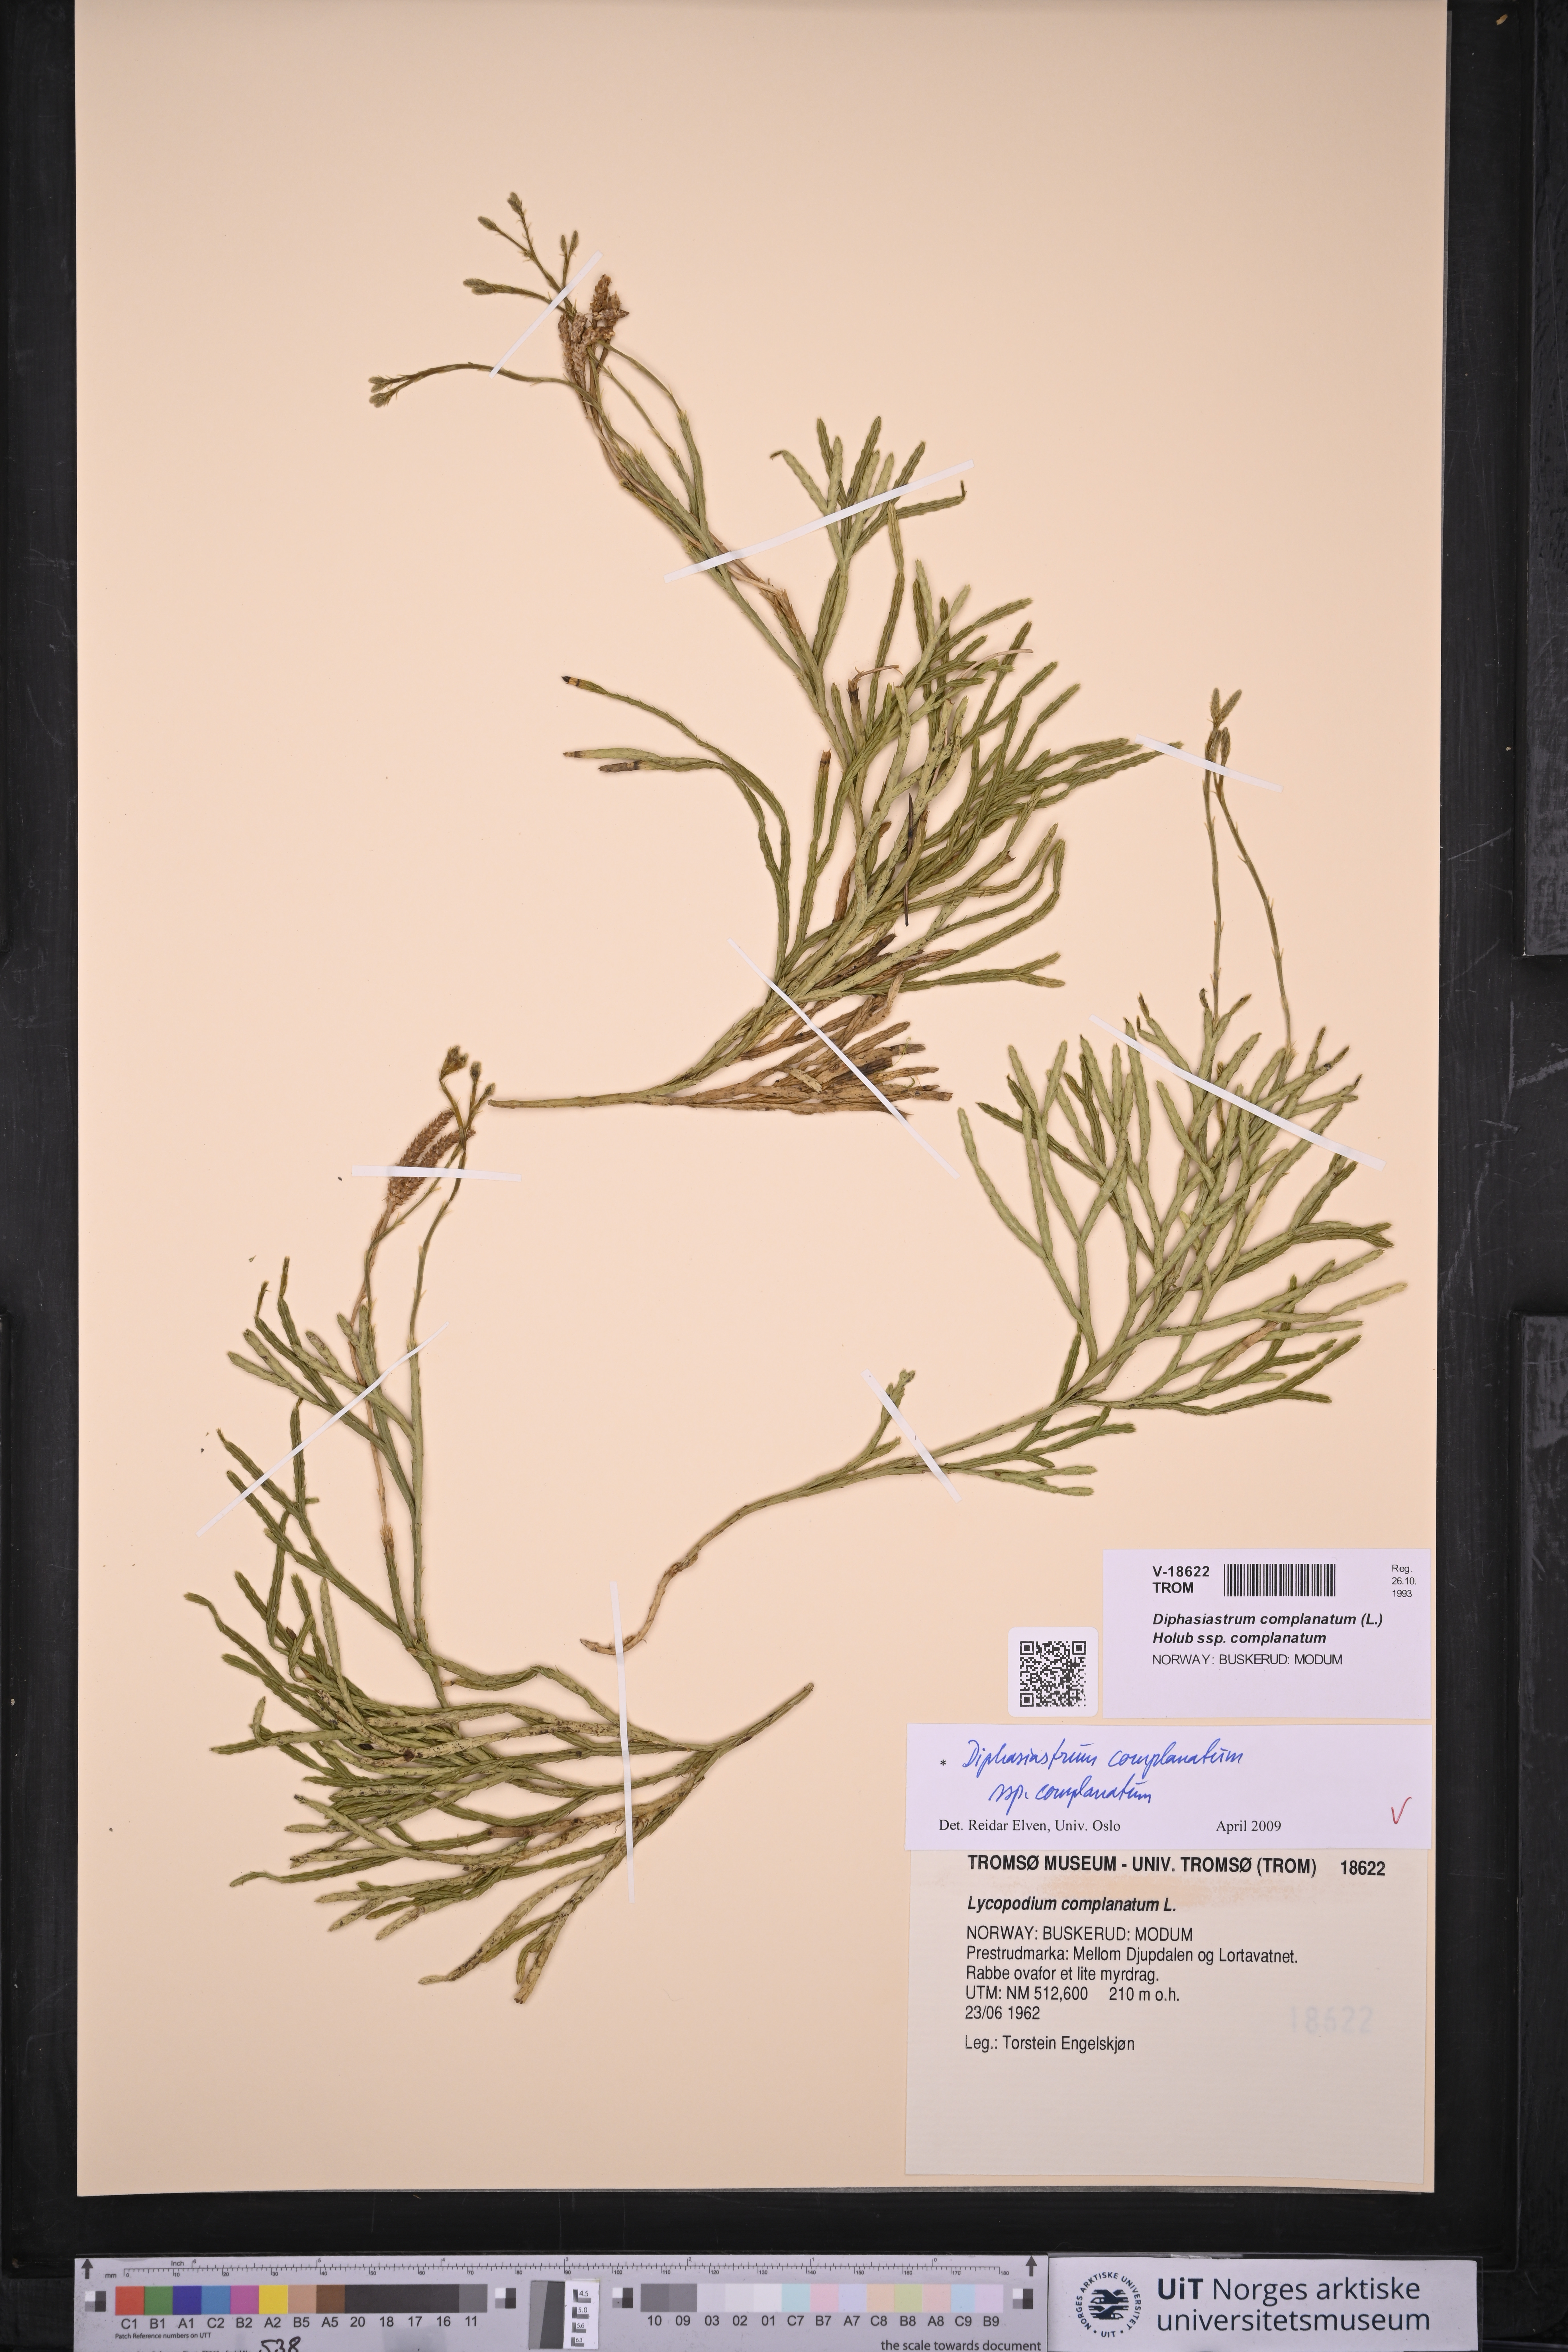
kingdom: Plantae
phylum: Tracheophyta
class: Lycopodiopsida
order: Lycopodiales
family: Lycopodiaceae
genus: Diphasiastrum
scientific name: Diphasiastrum complanatum
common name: Northern running-pine
